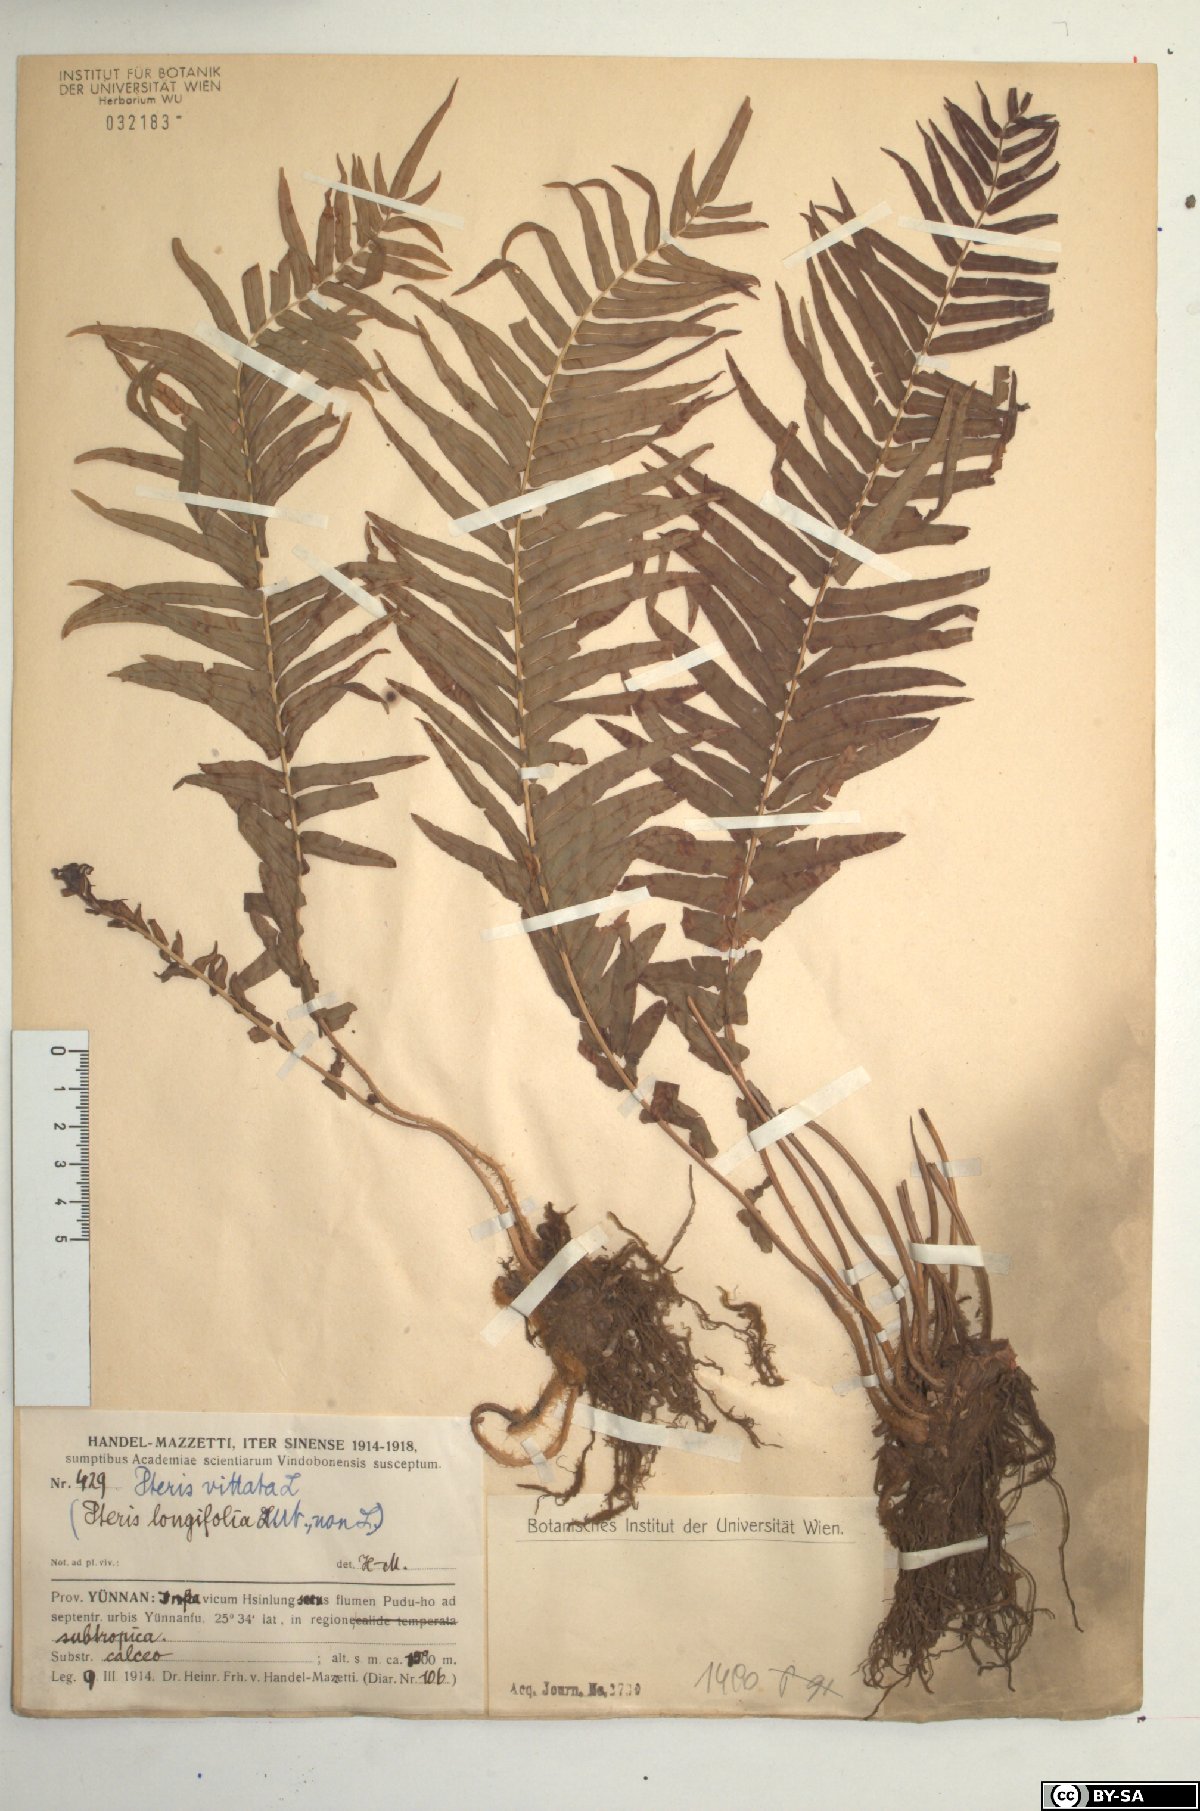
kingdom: Plantae
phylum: Tracheophyta
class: Polypodiopsida
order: Polypodiales
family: Pteridaceae
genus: Pteris
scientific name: Pteris vittata
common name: Ladder brake
